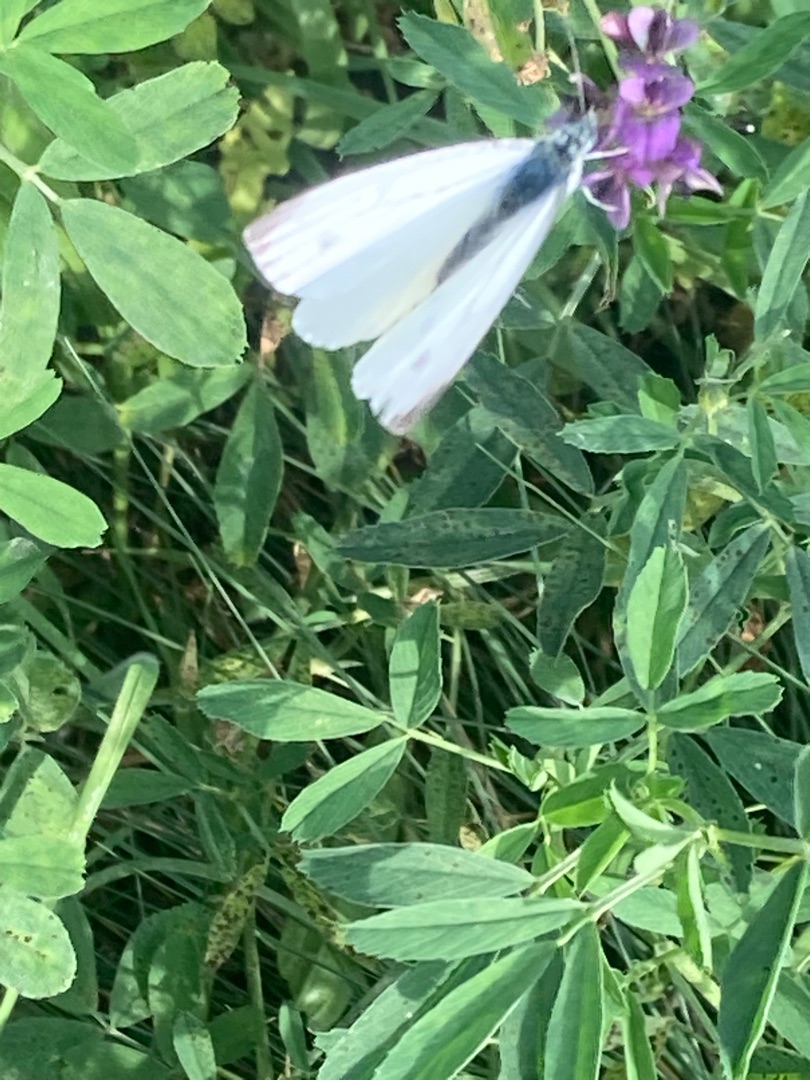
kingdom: Animalia
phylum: Arthropoda
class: Insecta
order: Lepidoptera
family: Pieridae
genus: Pieris
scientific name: Pieris napi
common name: Grønåret kålsommerfugl
